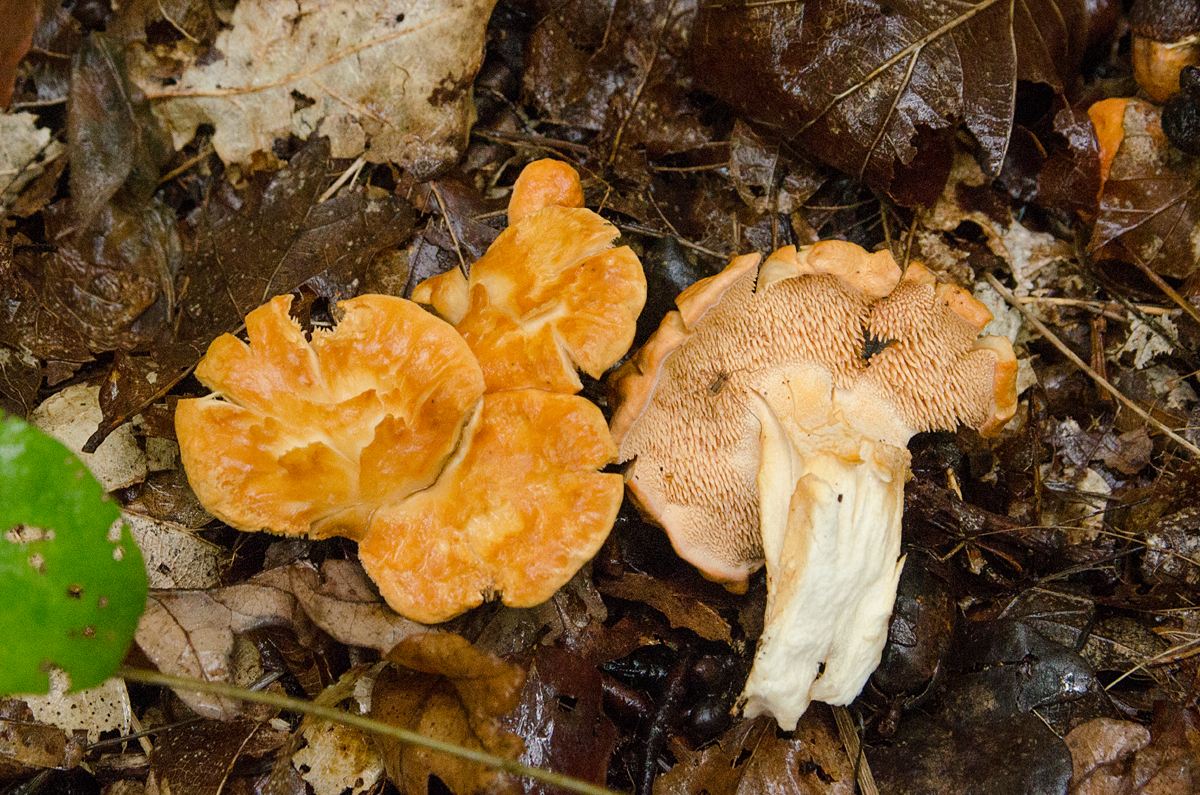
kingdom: Fungi
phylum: Basidiomycota
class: Agaricomycetes
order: Cantharellales
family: Hydnaceae
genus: Hydnum
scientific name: Hydnum rufescens
